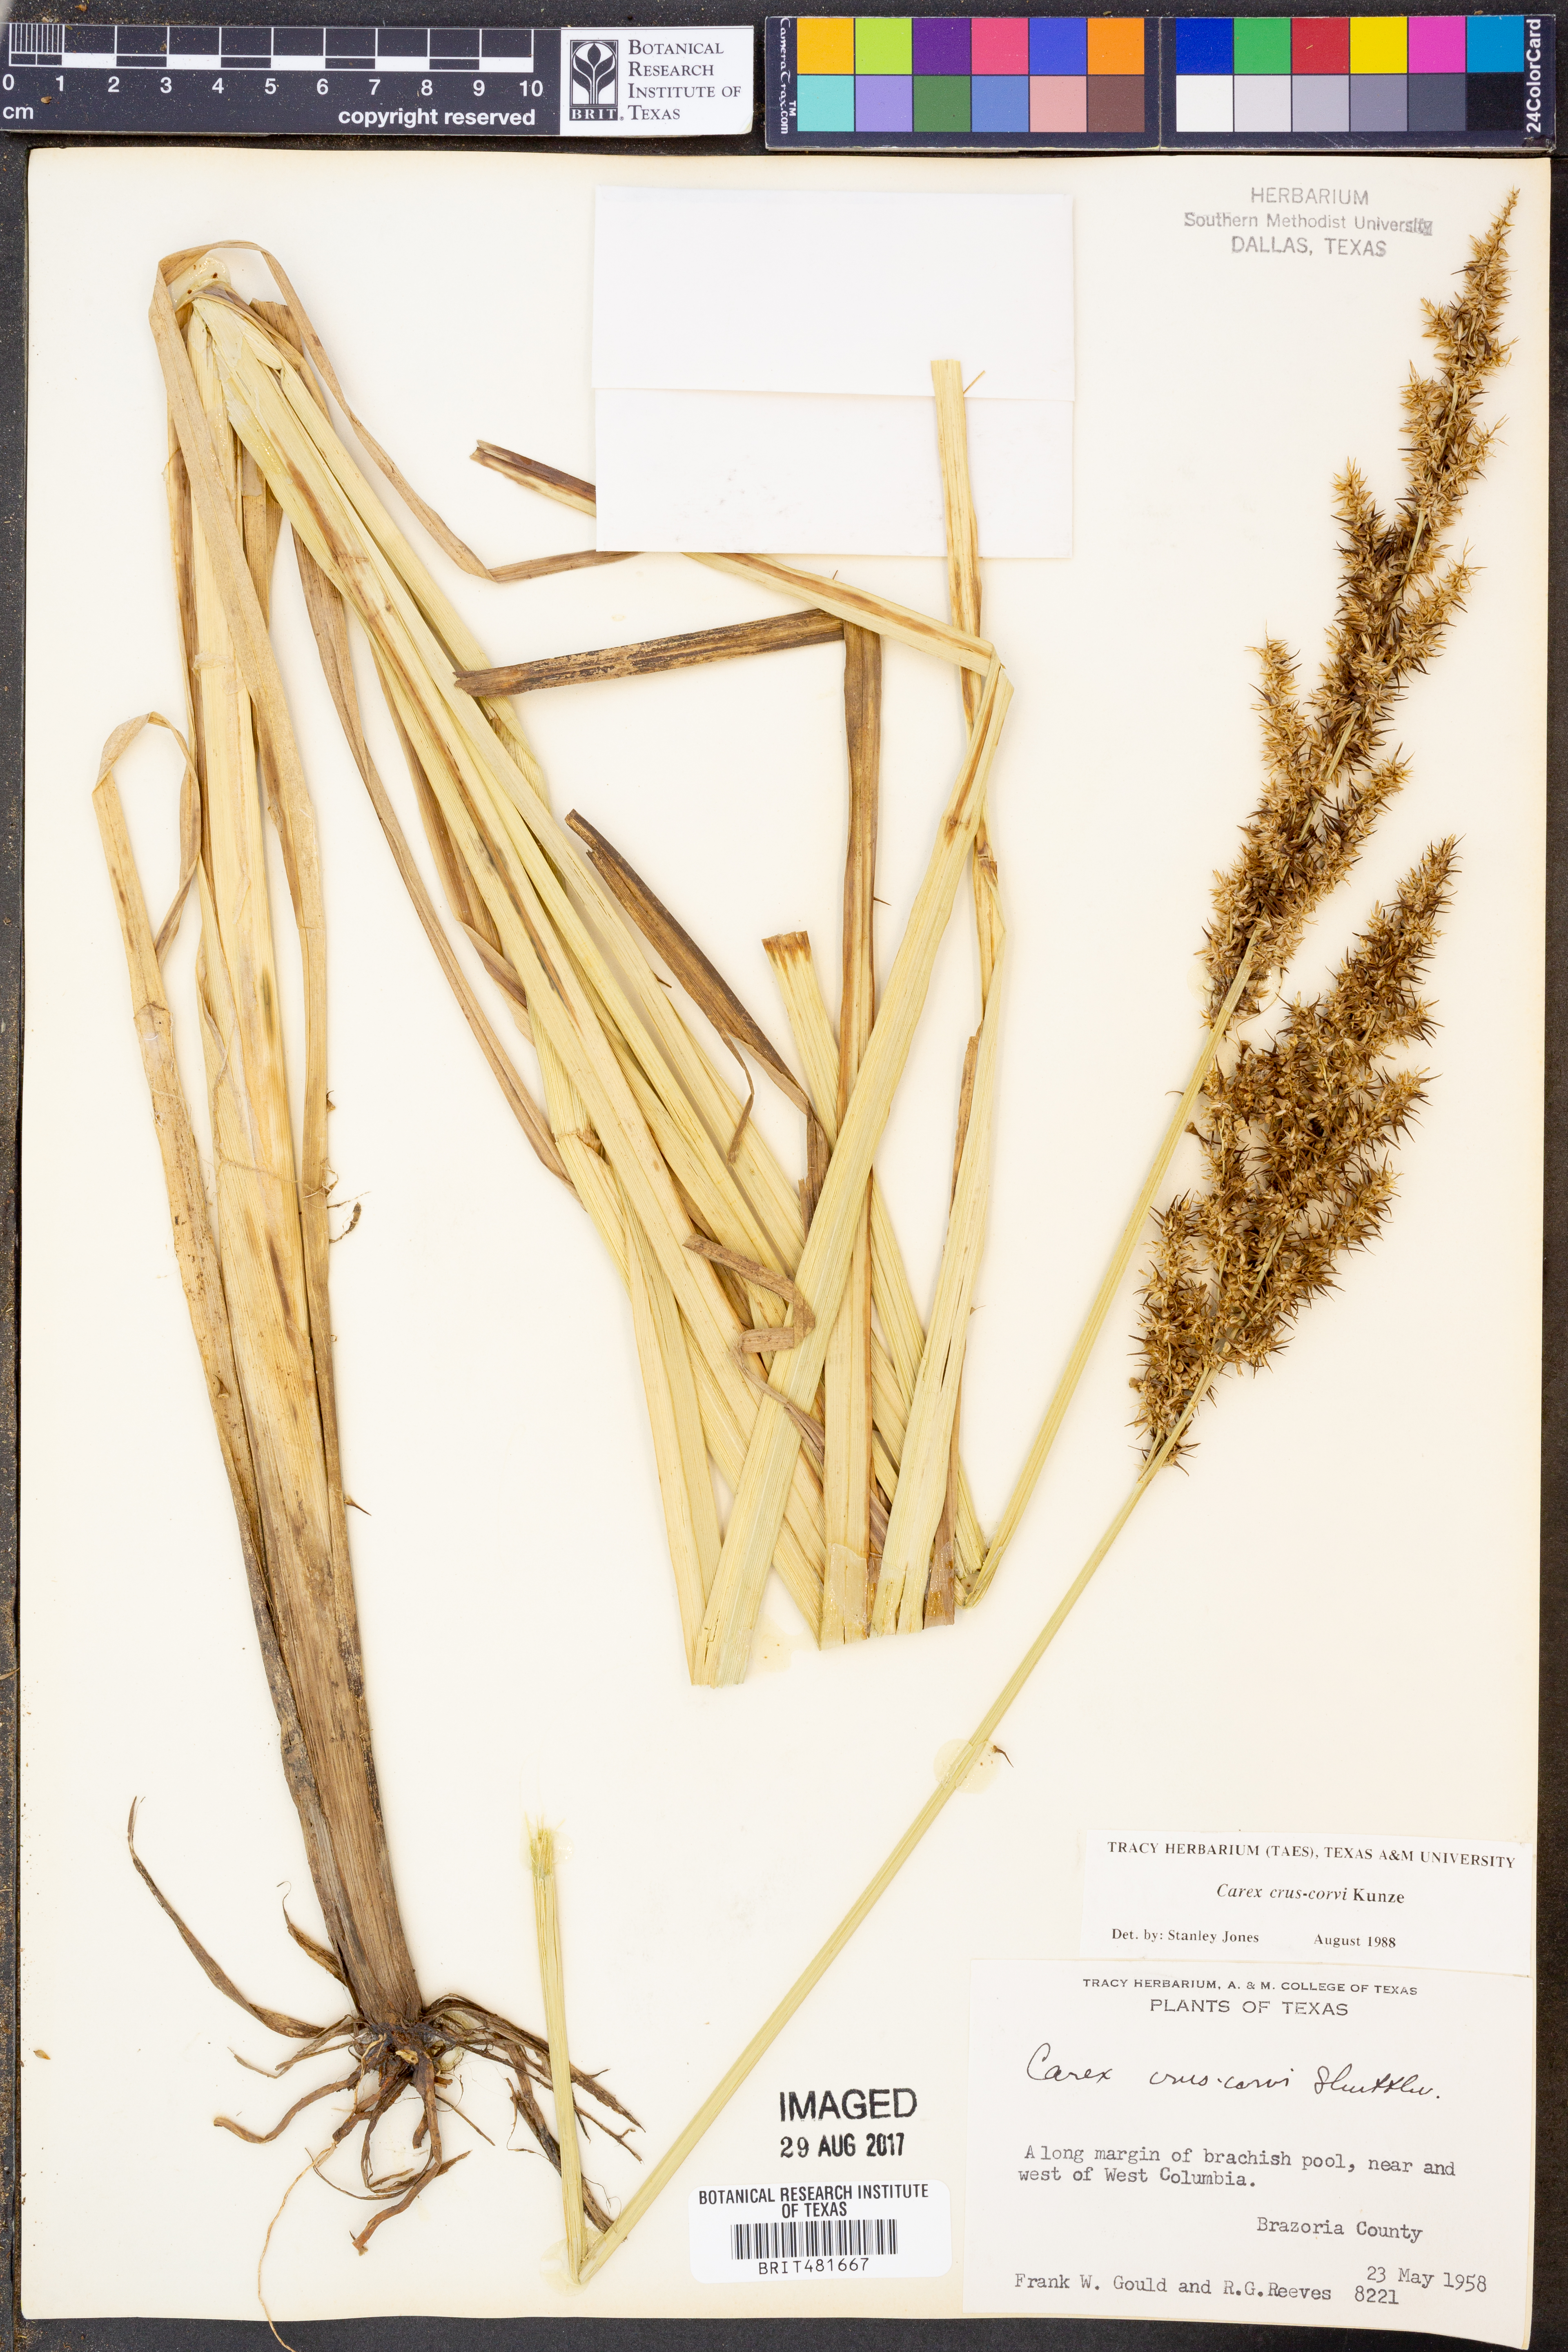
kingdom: Plantae
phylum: Tracheophyta
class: Liliopsida
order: Poales
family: Cyperaceae
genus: Carex
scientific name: Carex crus-corvi
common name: Crow-spur sedge
